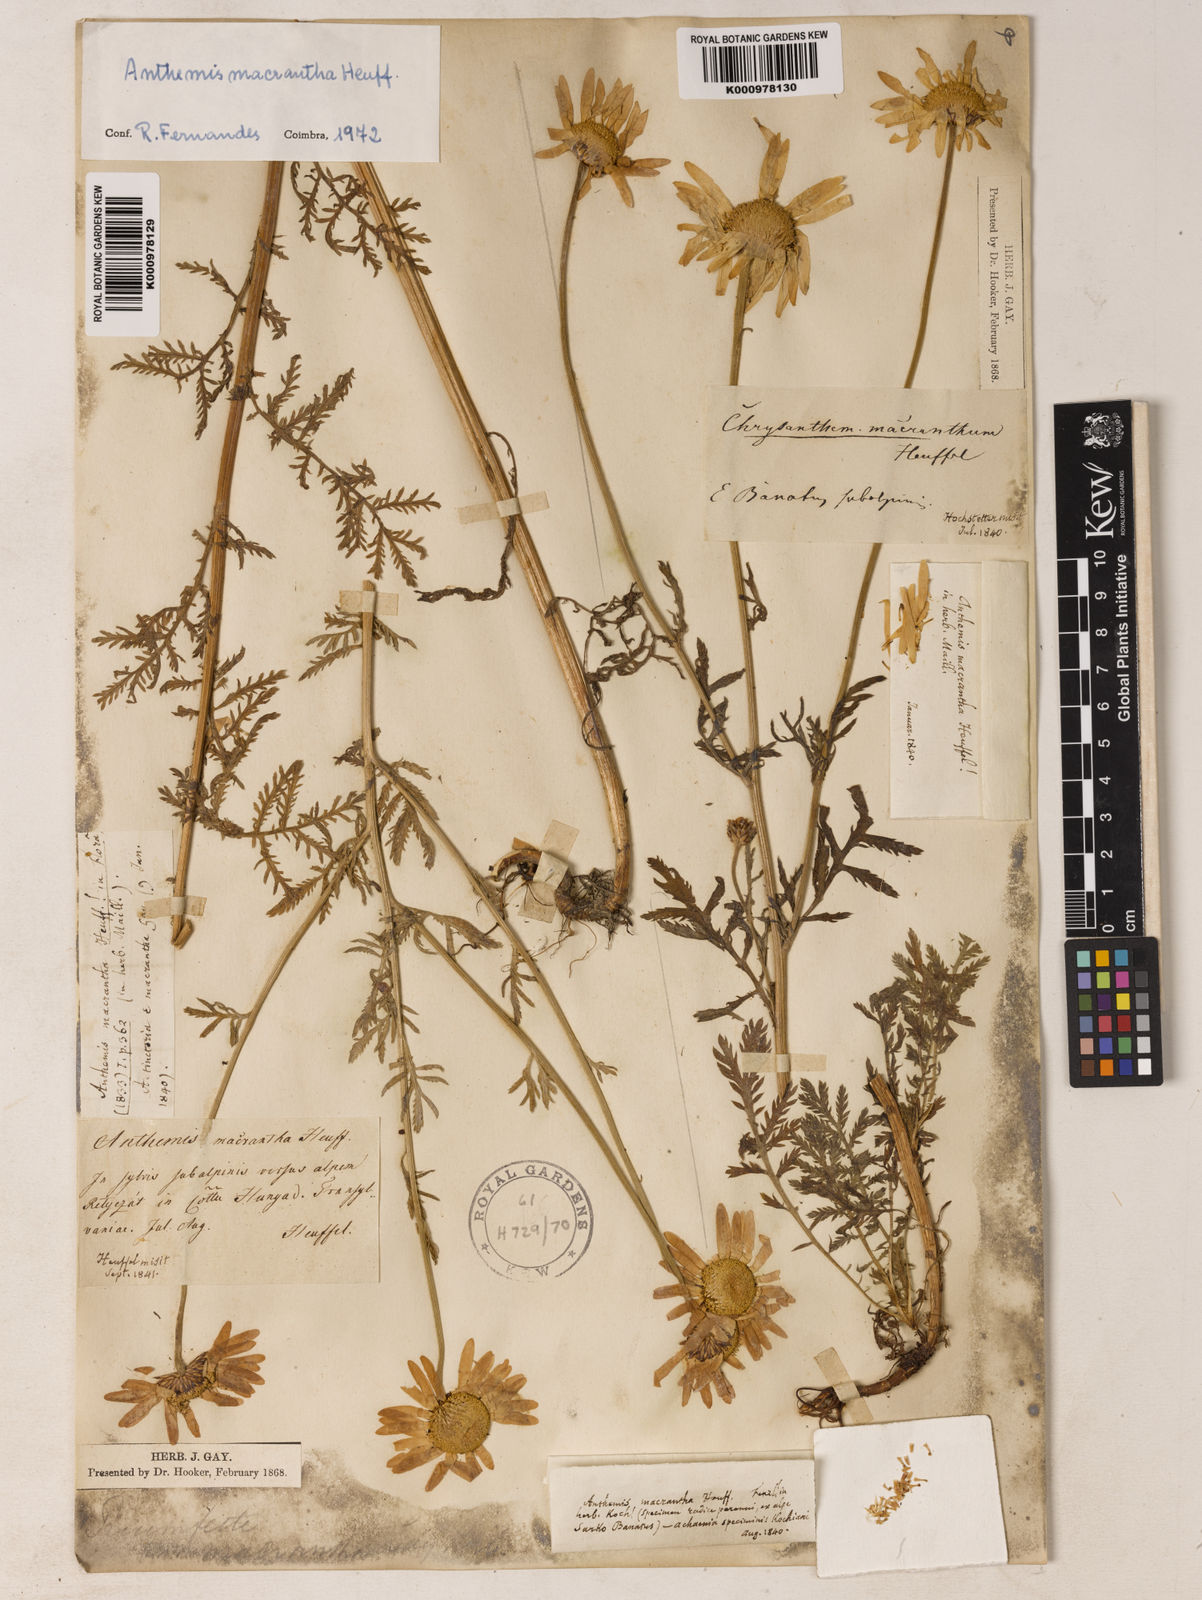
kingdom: Plantae
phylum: Tracheophyta
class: Magnoliopsida
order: Asterales
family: Asteraceae
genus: Cota
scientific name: Cota macrantha
